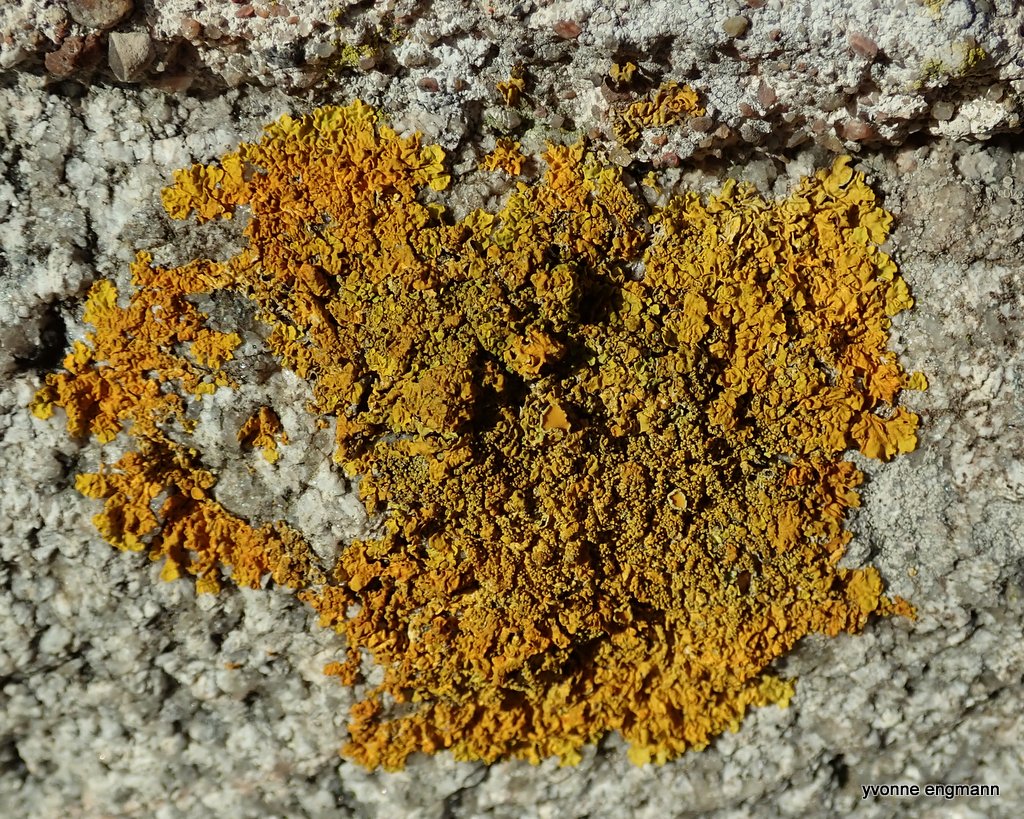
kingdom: Fungi
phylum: Ascomycota
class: Lecanoromycetes
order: Teloschistales
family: Teloschistaceae
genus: Xanthoria
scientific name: Xanthoria parietina
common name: almindelig væggelav
